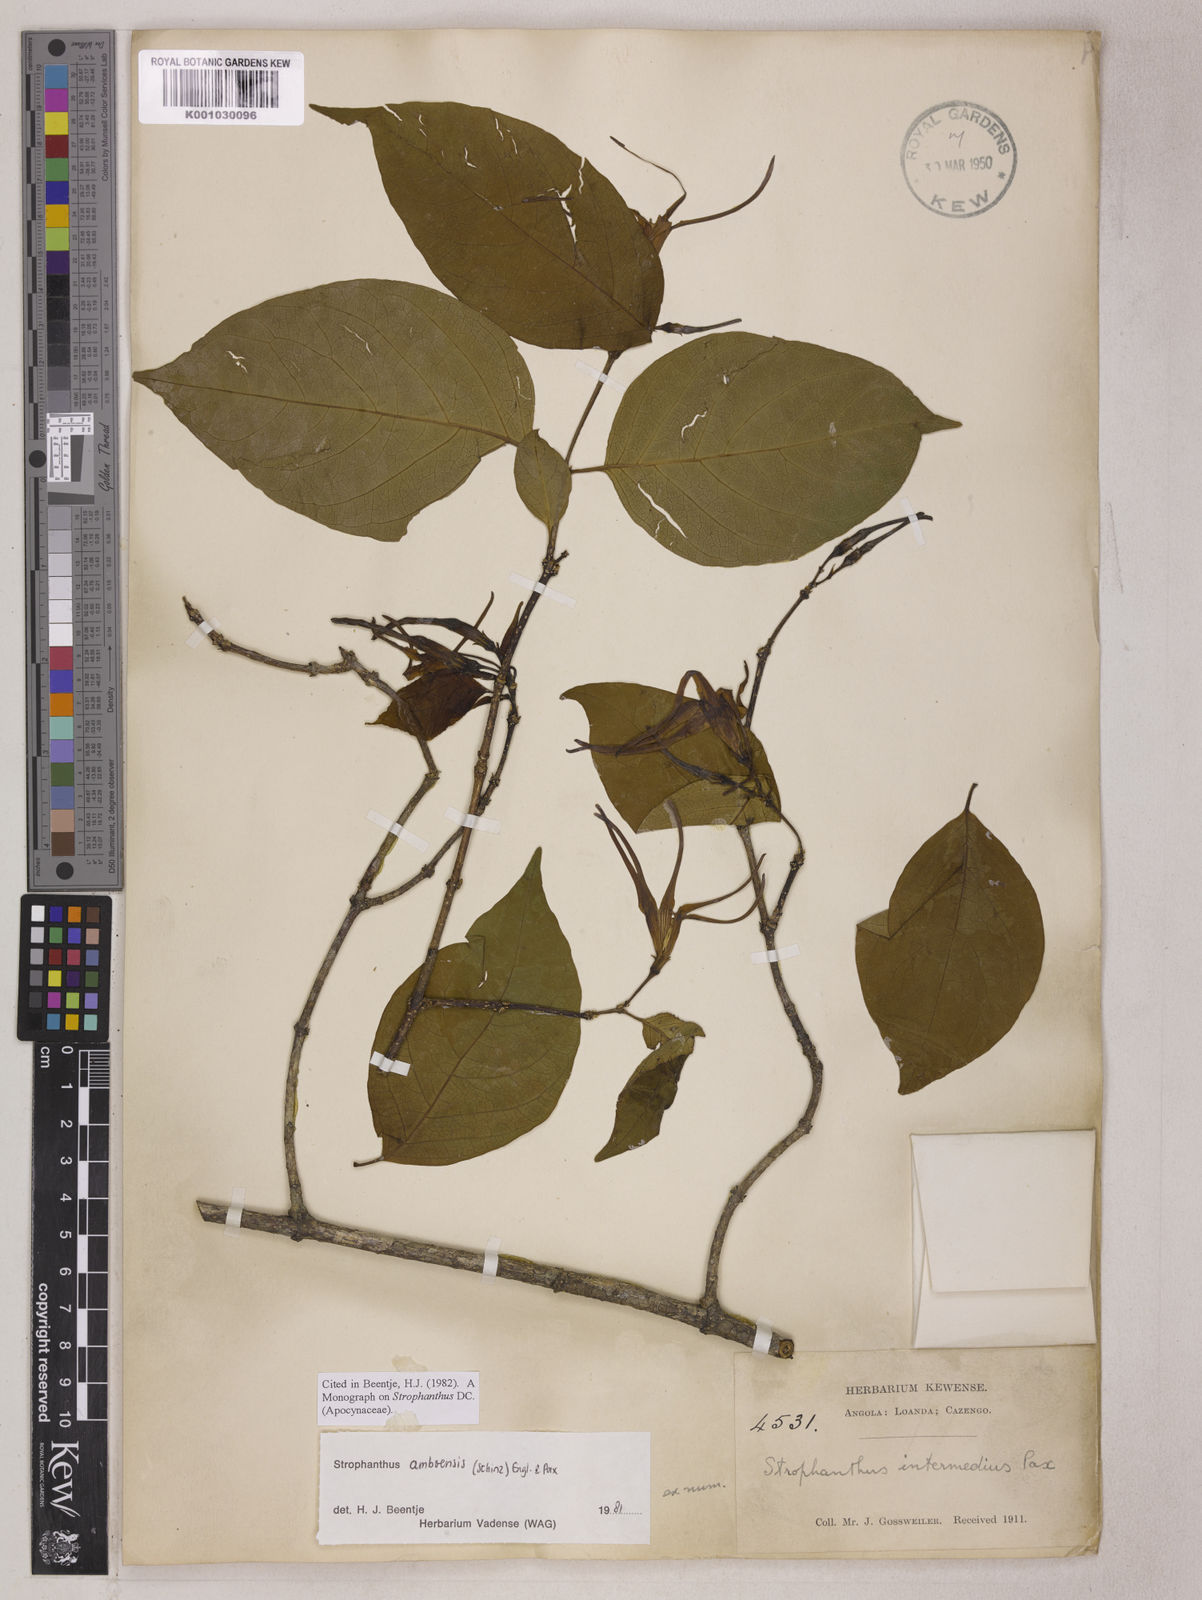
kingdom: Plantae
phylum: Tracheophyta
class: Magnoliopsida
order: Gentianales
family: Apocynaceae
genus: Strophanthus
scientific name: Strophanthus amboensis
